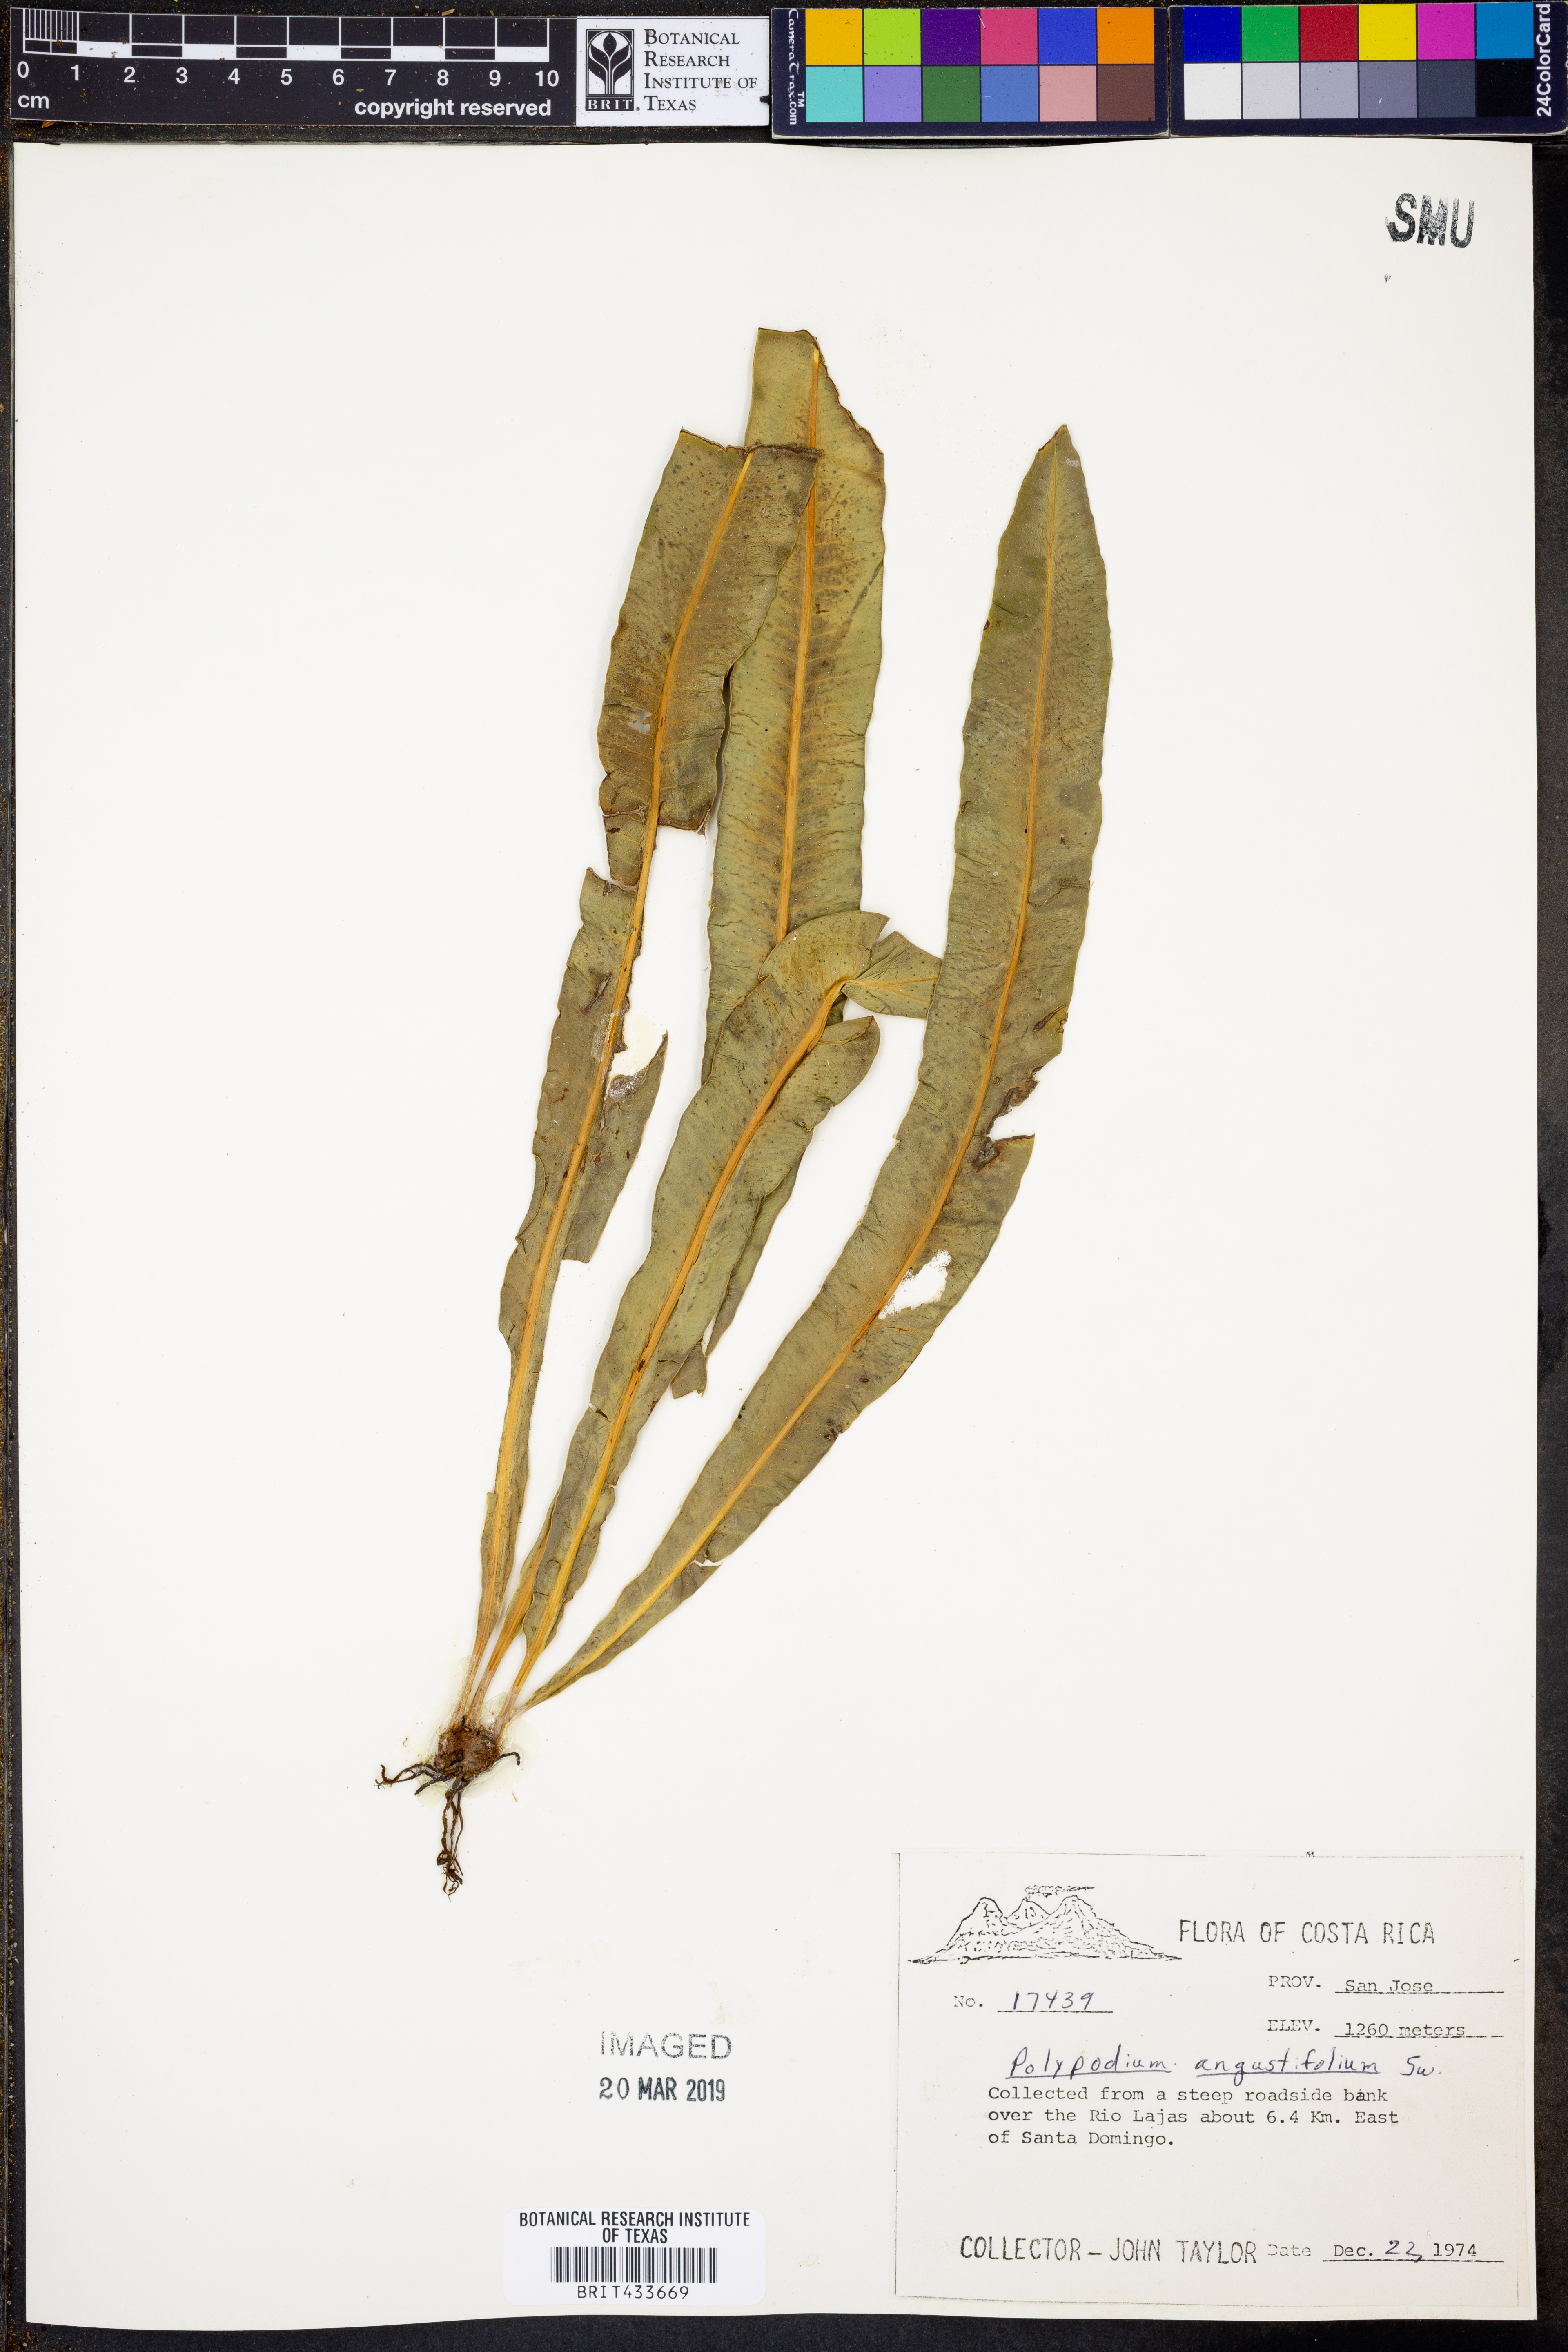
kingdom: Plantae
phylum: Tracheophyta
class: Polypodiopsida
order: Polypodiales
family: Polypodiaceae
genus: Campyloneurum
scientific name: Campyloneurum angustifolium
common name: Narrow-leaf strap fern
